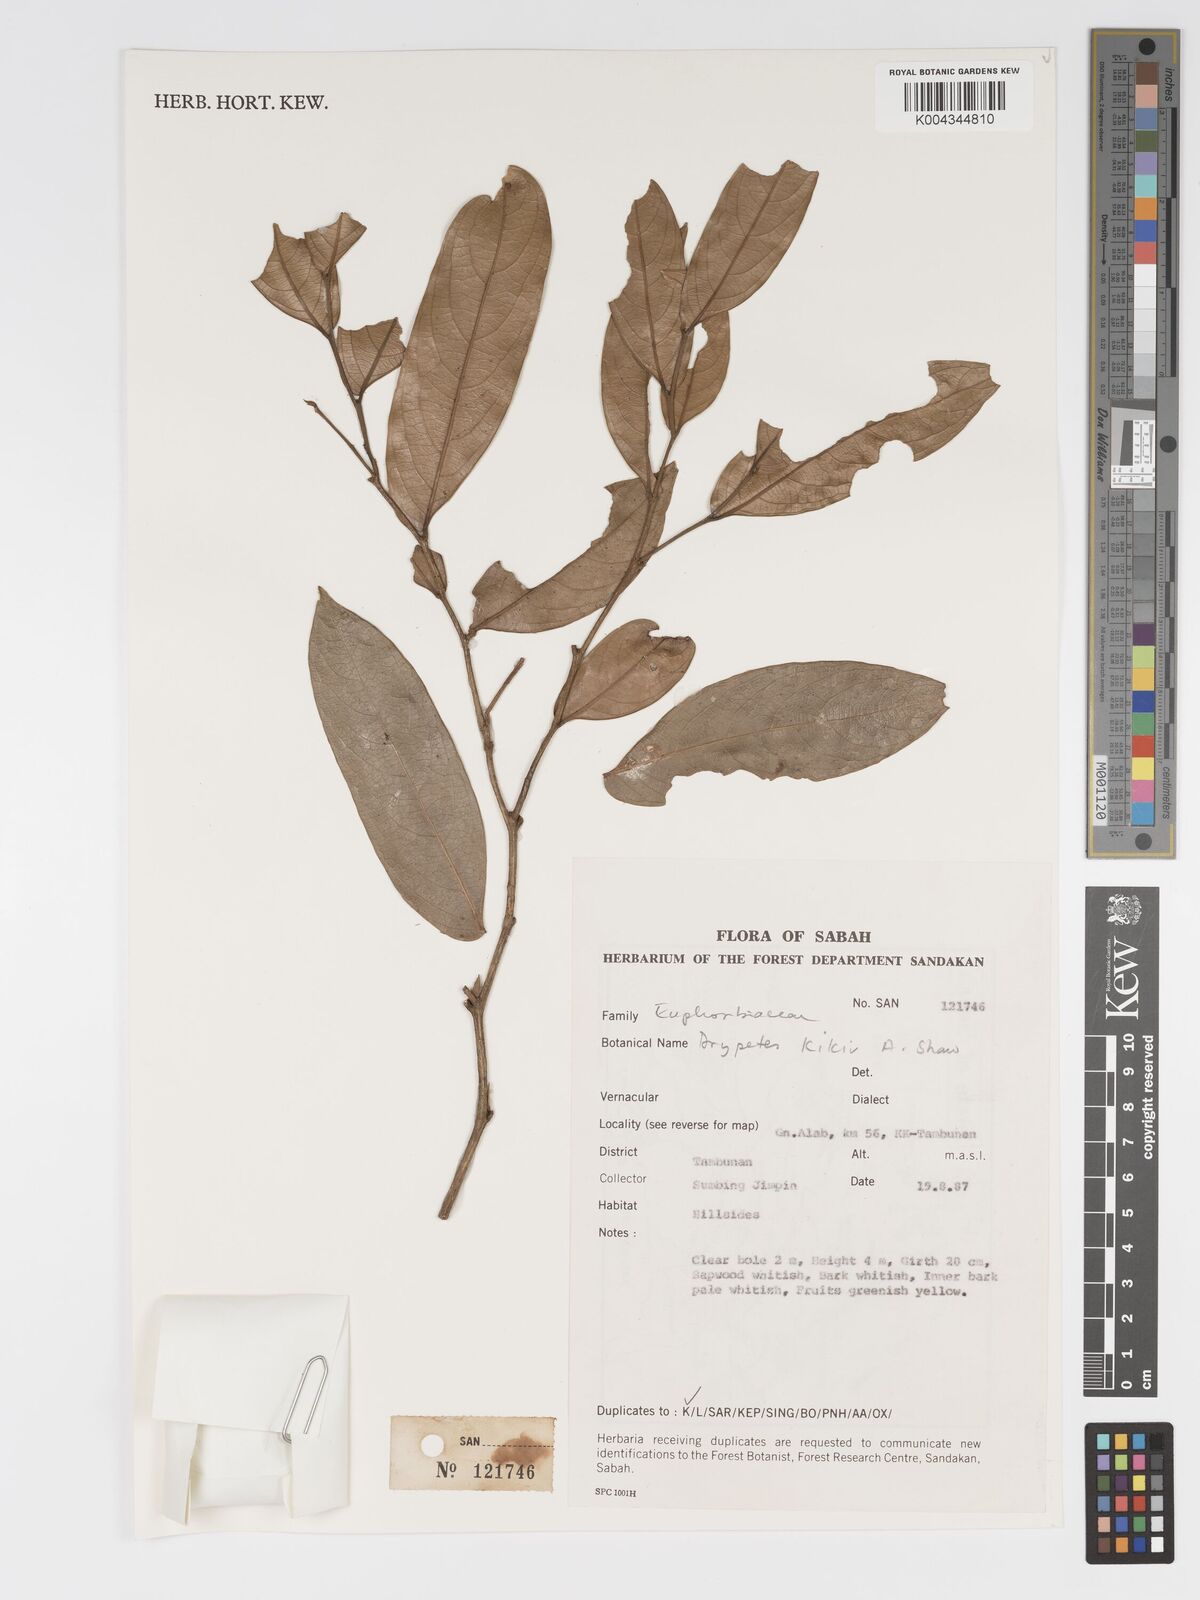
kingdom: Plantae
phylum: Tracheophyta
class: Magnoliopsida
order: Malpighiales
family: Putranjivaceae
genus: Drypetes
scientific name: Drypetes kikir
